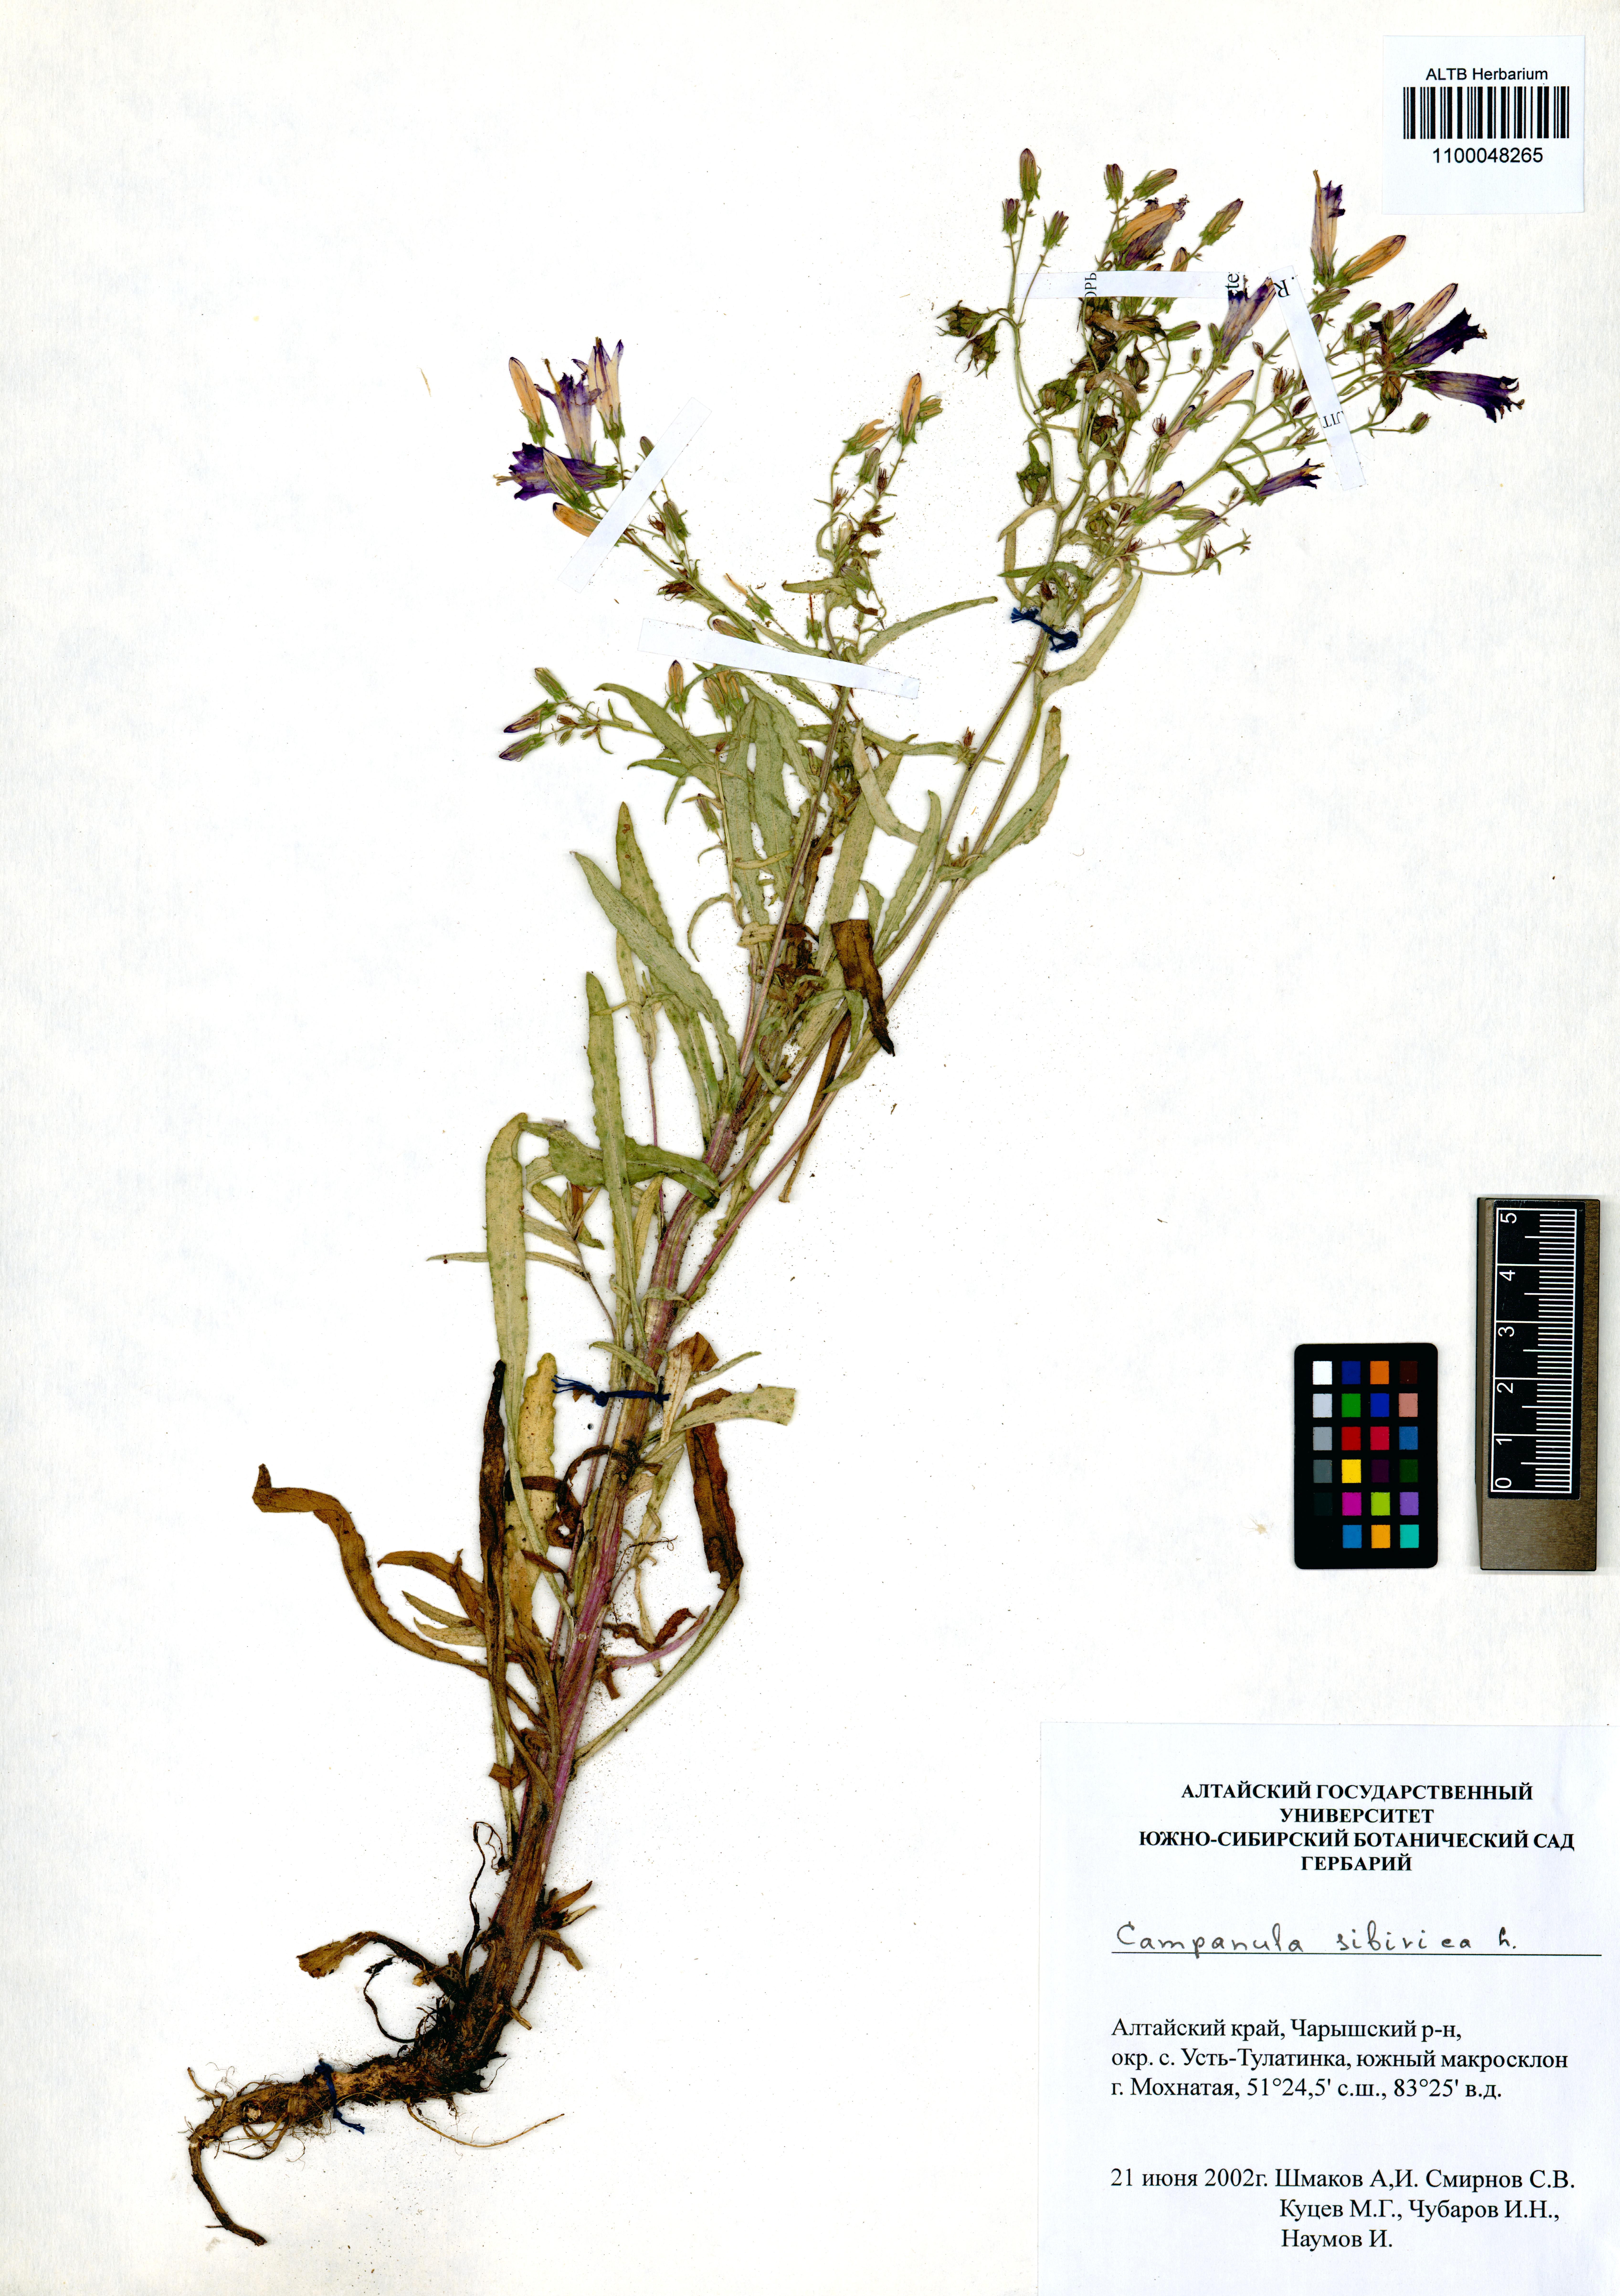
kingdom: Plantae
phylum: Tracheophyta
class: Magnoliopsida
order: Asterales
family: Campanulaceae
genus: Campanula
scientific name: Campanula sibirica
